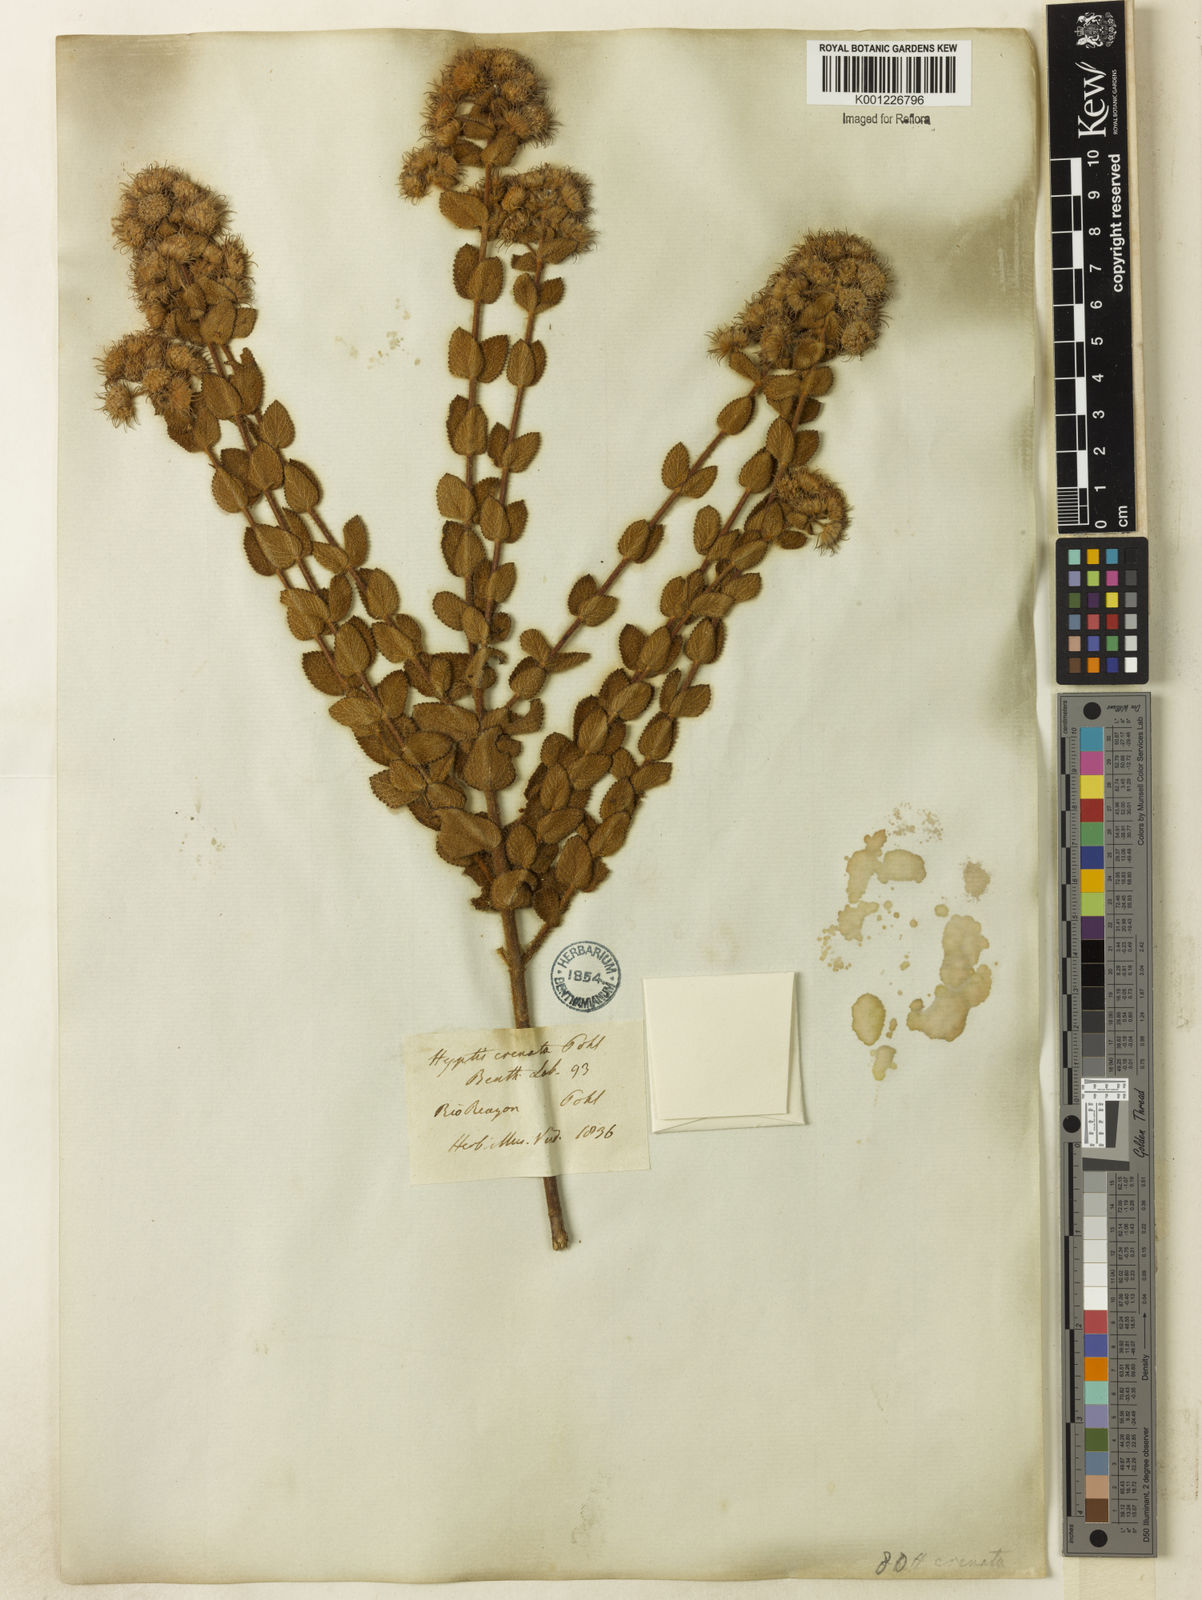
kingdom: Plantae
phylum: Tracheophyta
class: Magnoliopsida
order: Lamiales
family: Lamiaceae
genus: Hyptis
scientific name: Hyptis crenata
